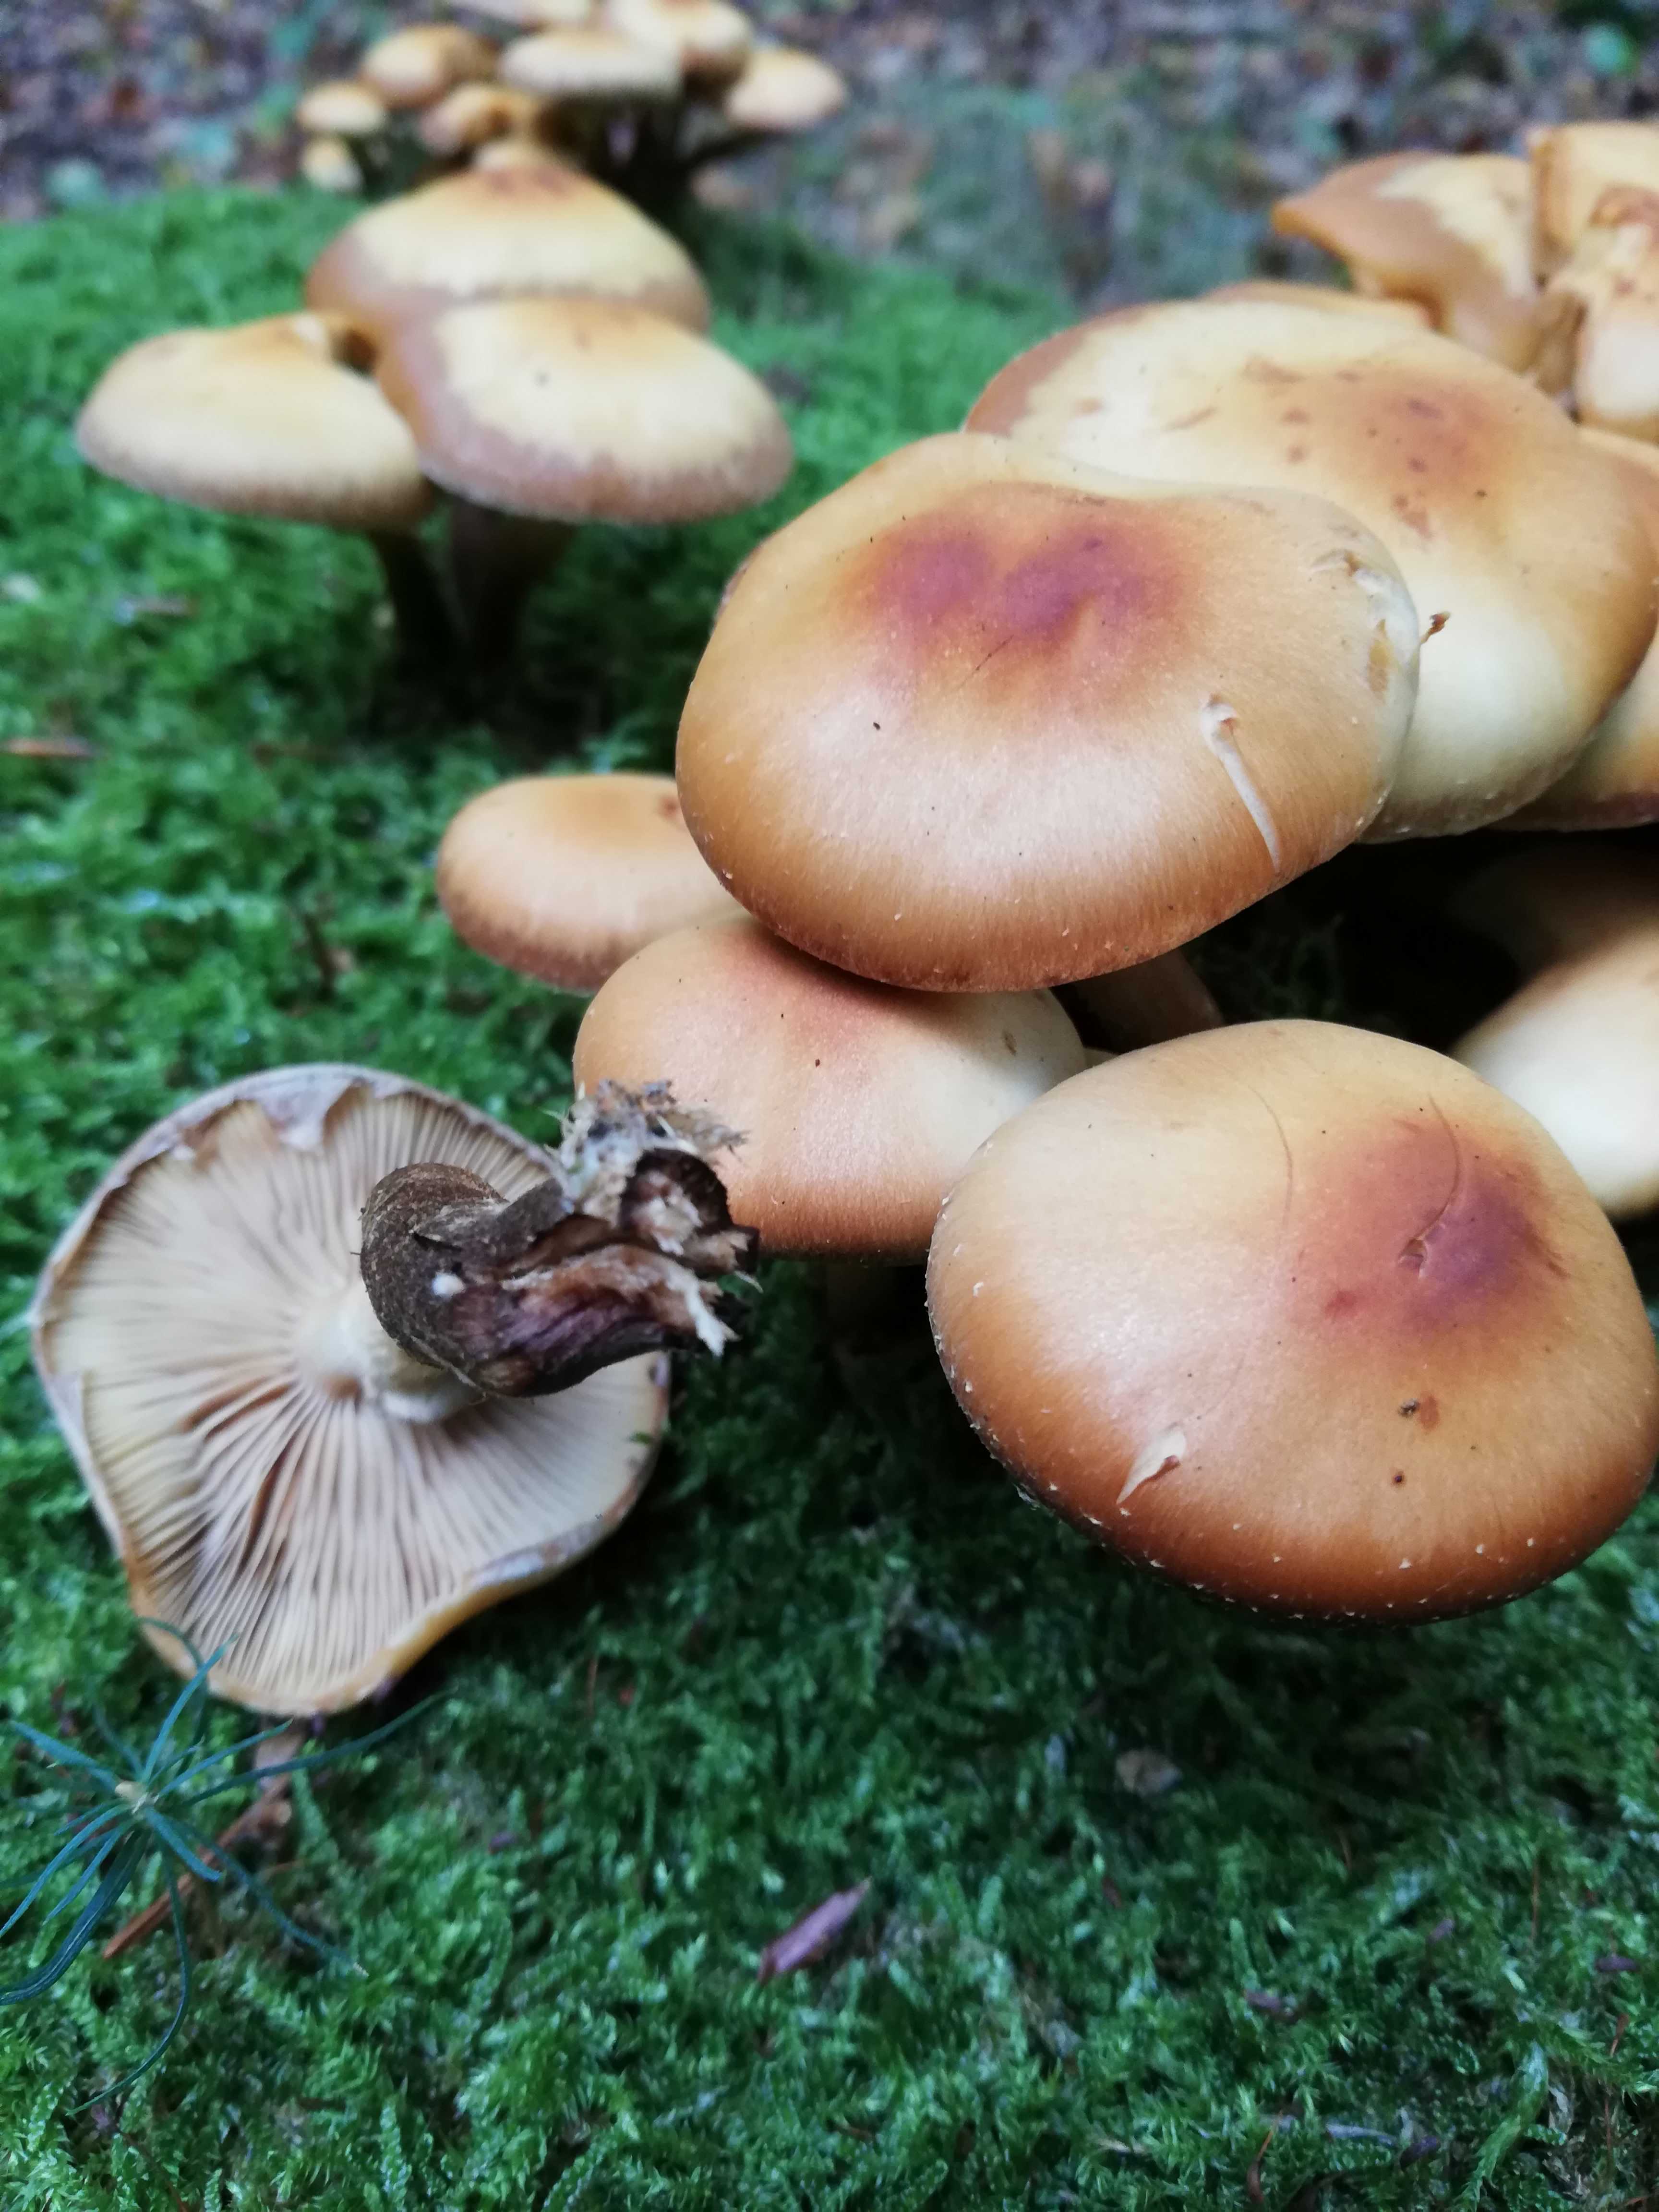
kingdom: Fungi
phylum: Basidiomycota
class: Agaricomycetes
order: Agaricales
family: Strophariaceae
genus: Kuehneromyces
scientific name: Kuehneromyces mutabilis
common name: foranderlig skælhat
